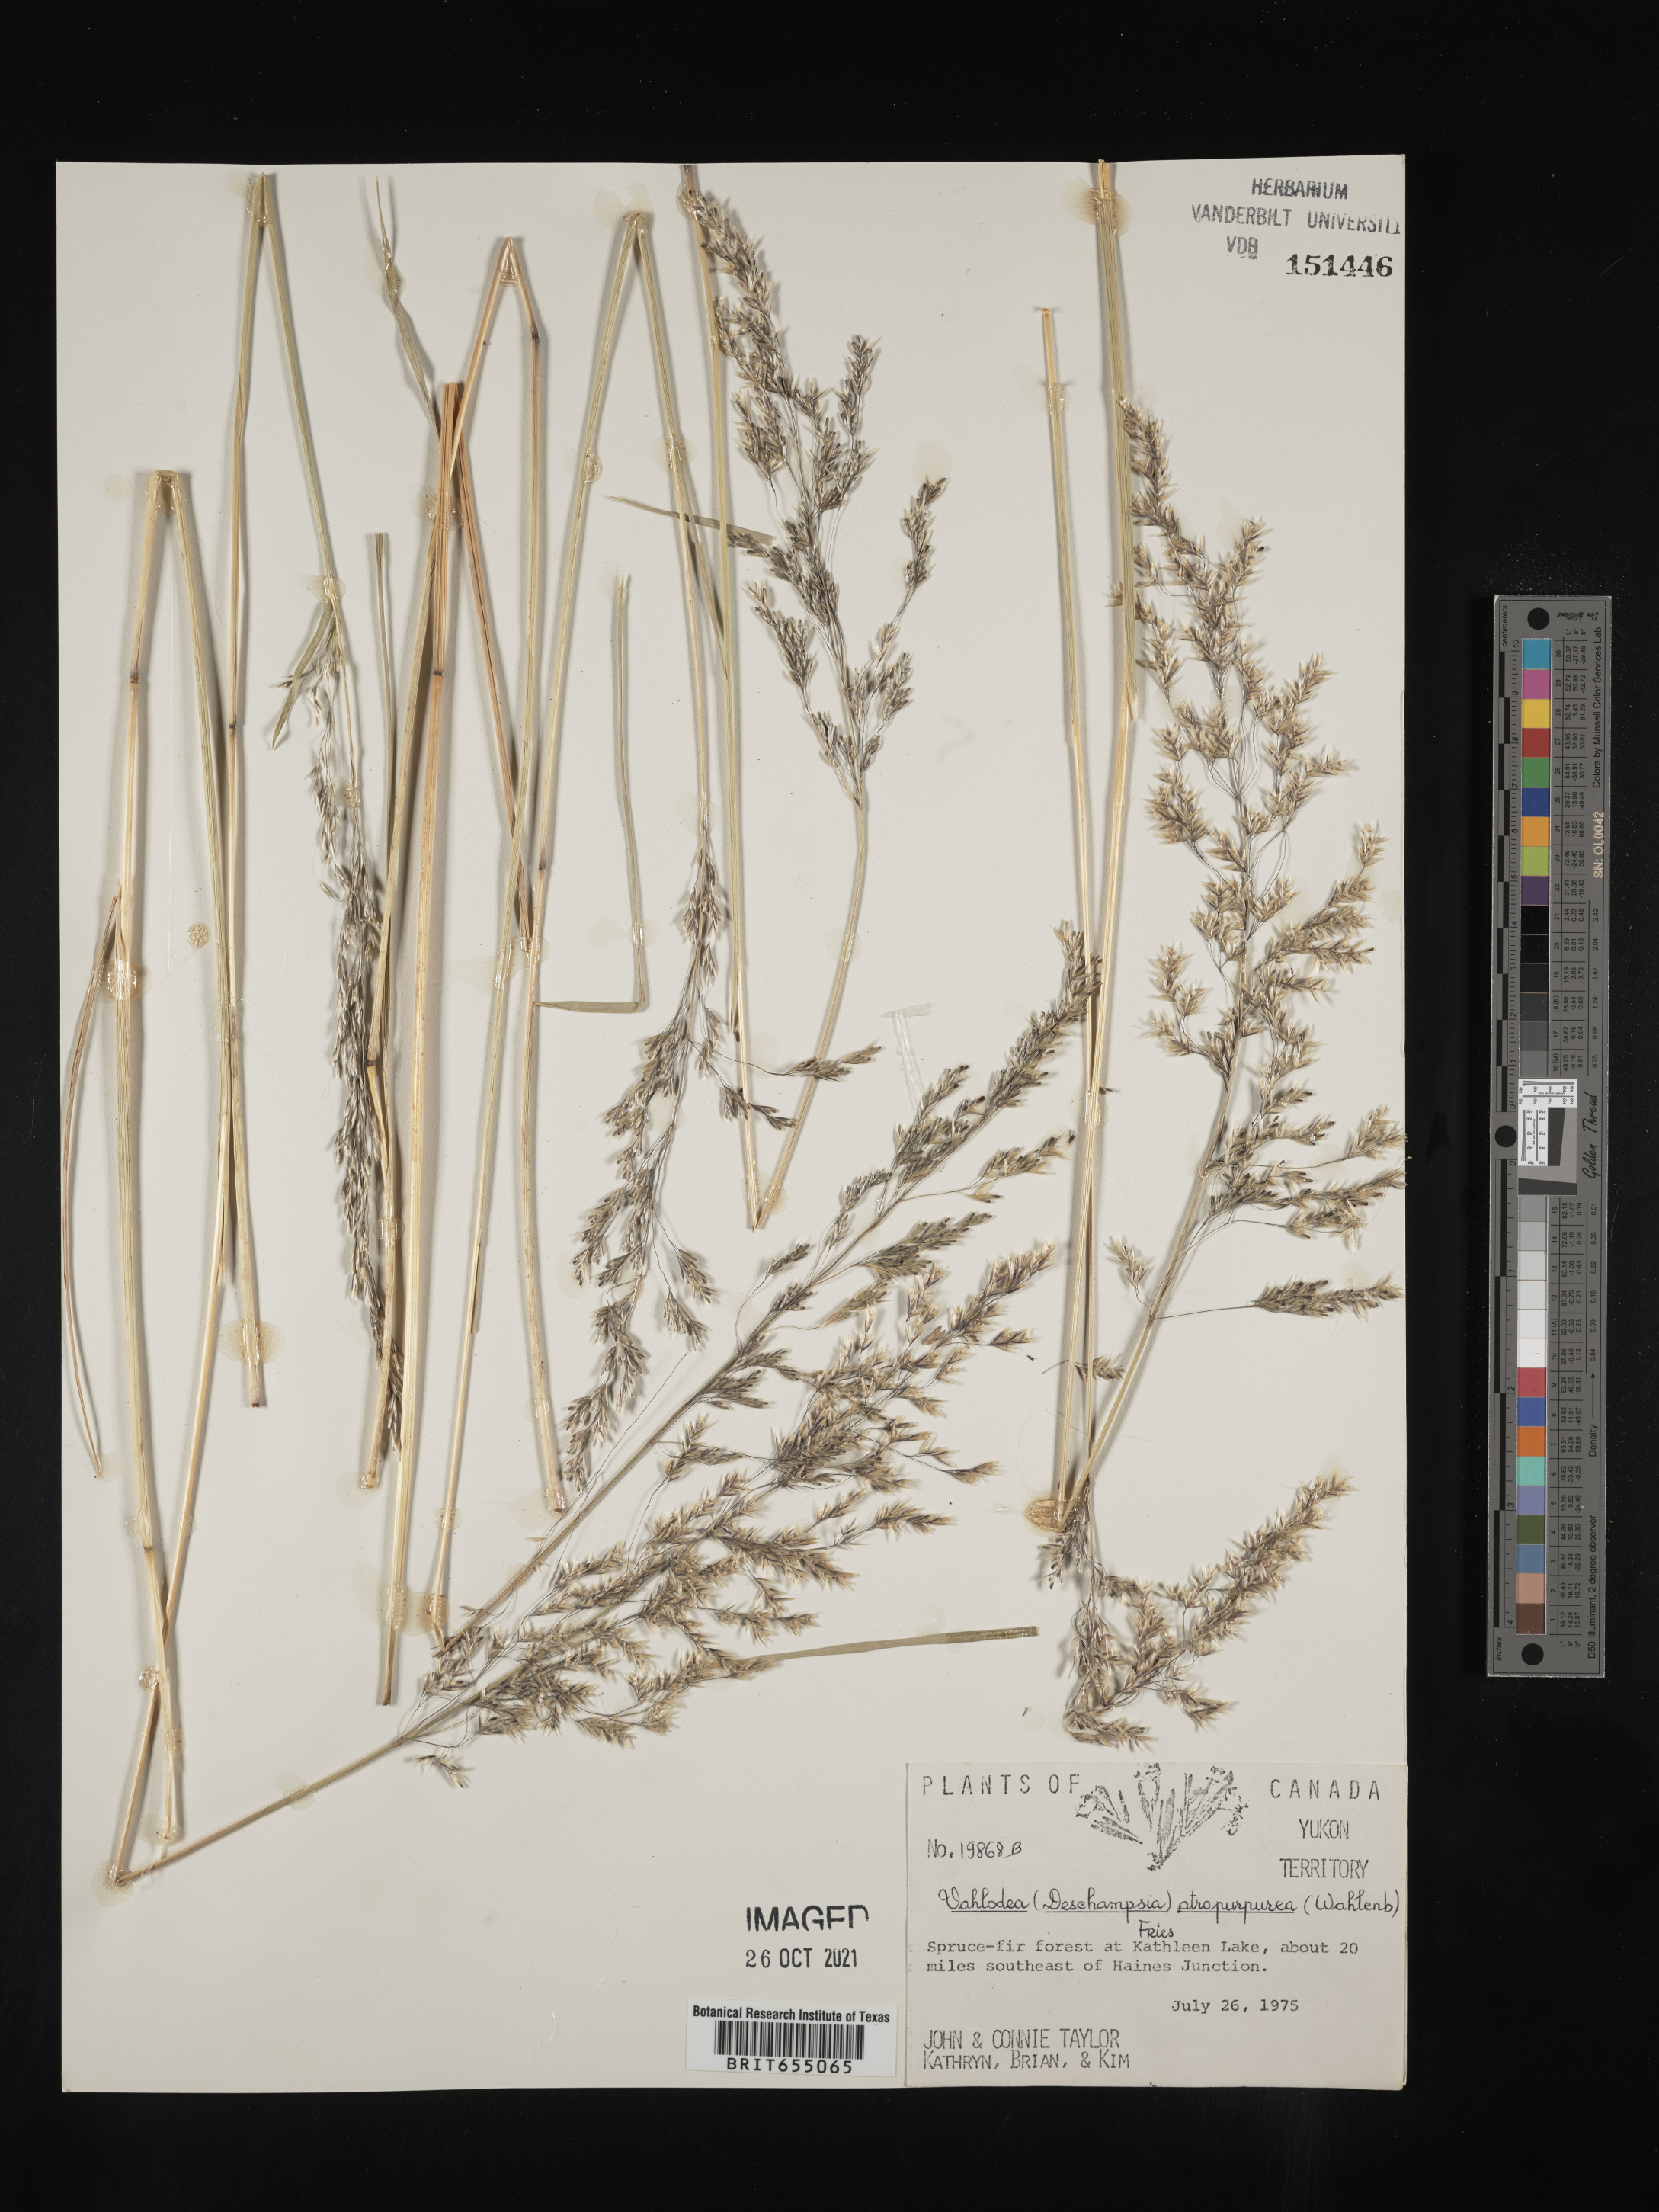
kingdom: Plantae
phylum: Tracheophyta
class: Liliopsida
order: Poales
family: Poaceae
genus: Deschampsia
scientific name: Deschampsia
